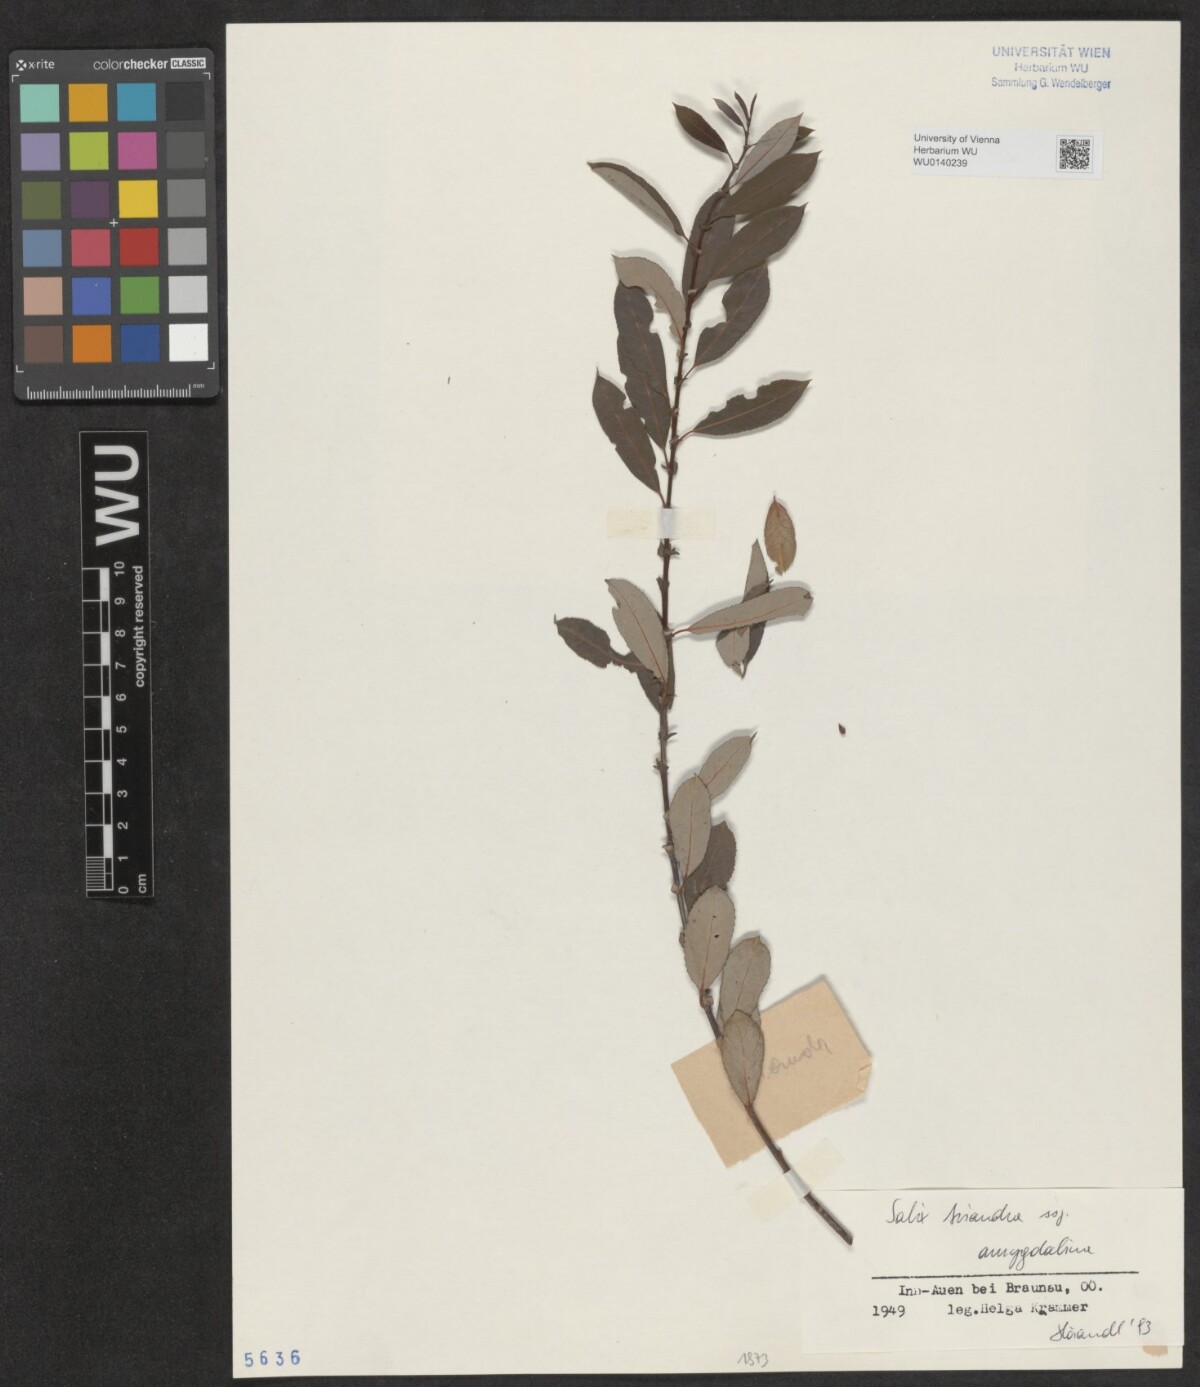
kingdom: Plantae
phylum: Tracheophyta
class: Magnoliopsida
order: Malpighiales
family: Salicaceae
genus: Salix
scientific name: Salix triandra
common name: Almond willow
